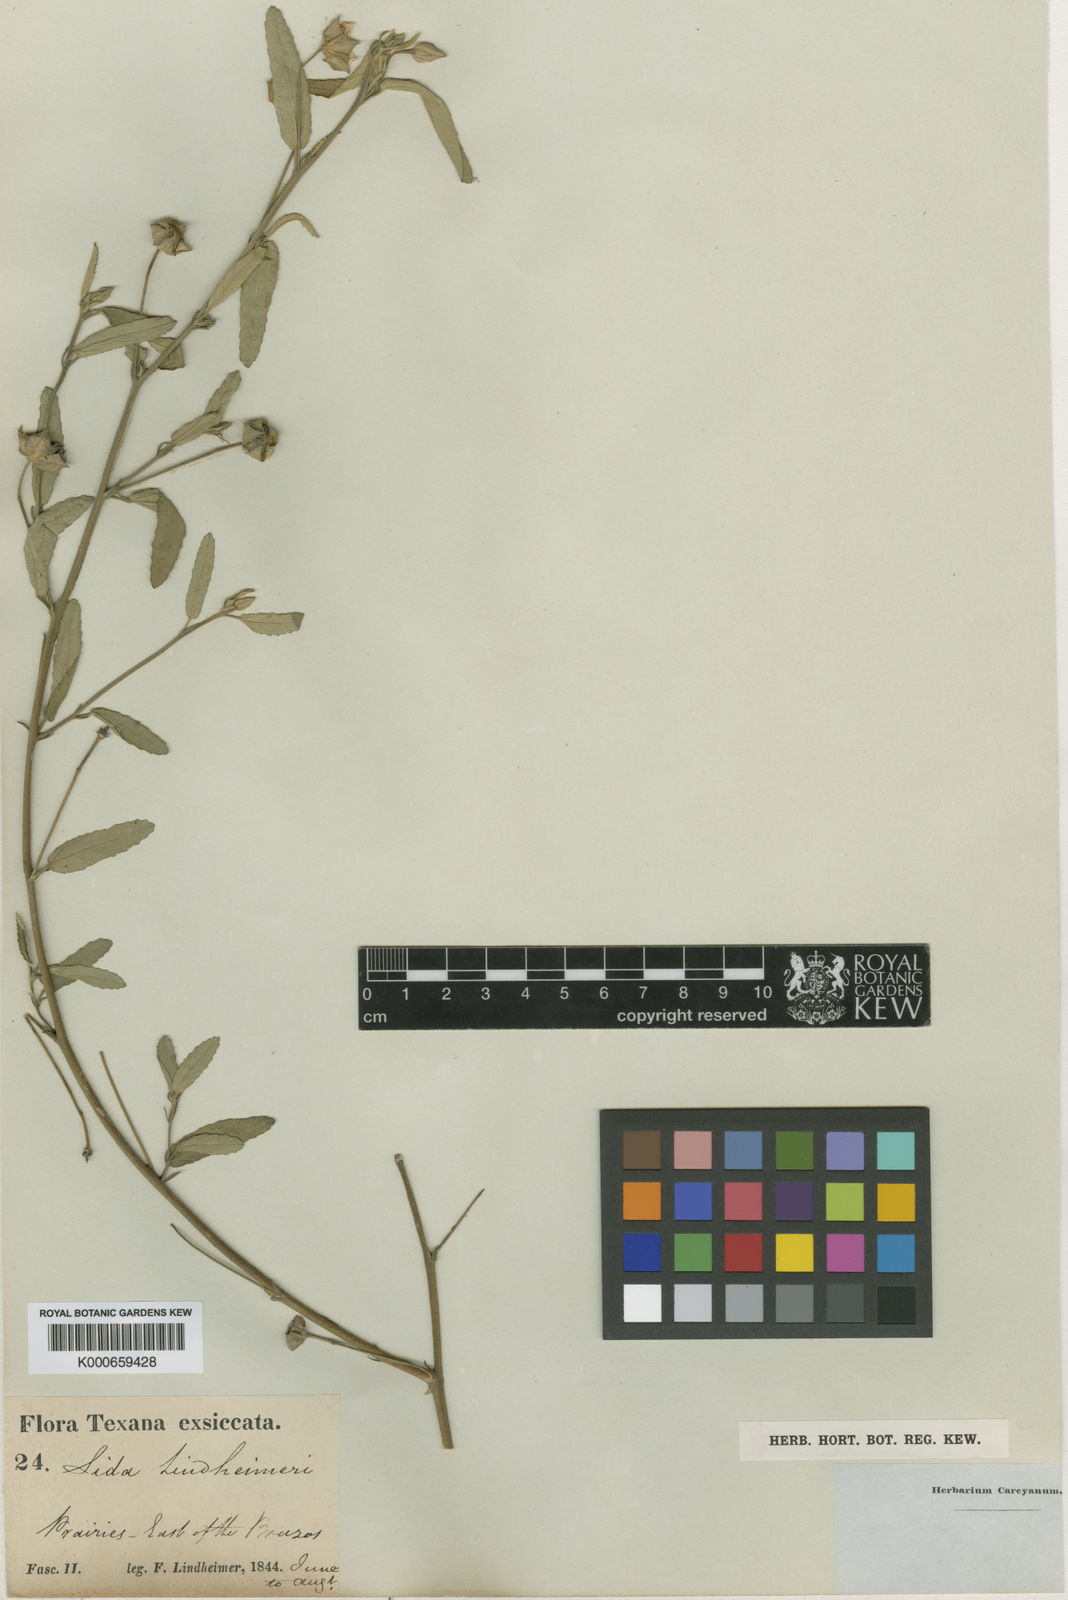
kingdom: Plantae
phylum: Tracheophyta
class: Magnoliopsida
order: Malvales
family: Malvaceae
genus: Sida
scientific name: Sida lindheimeri
